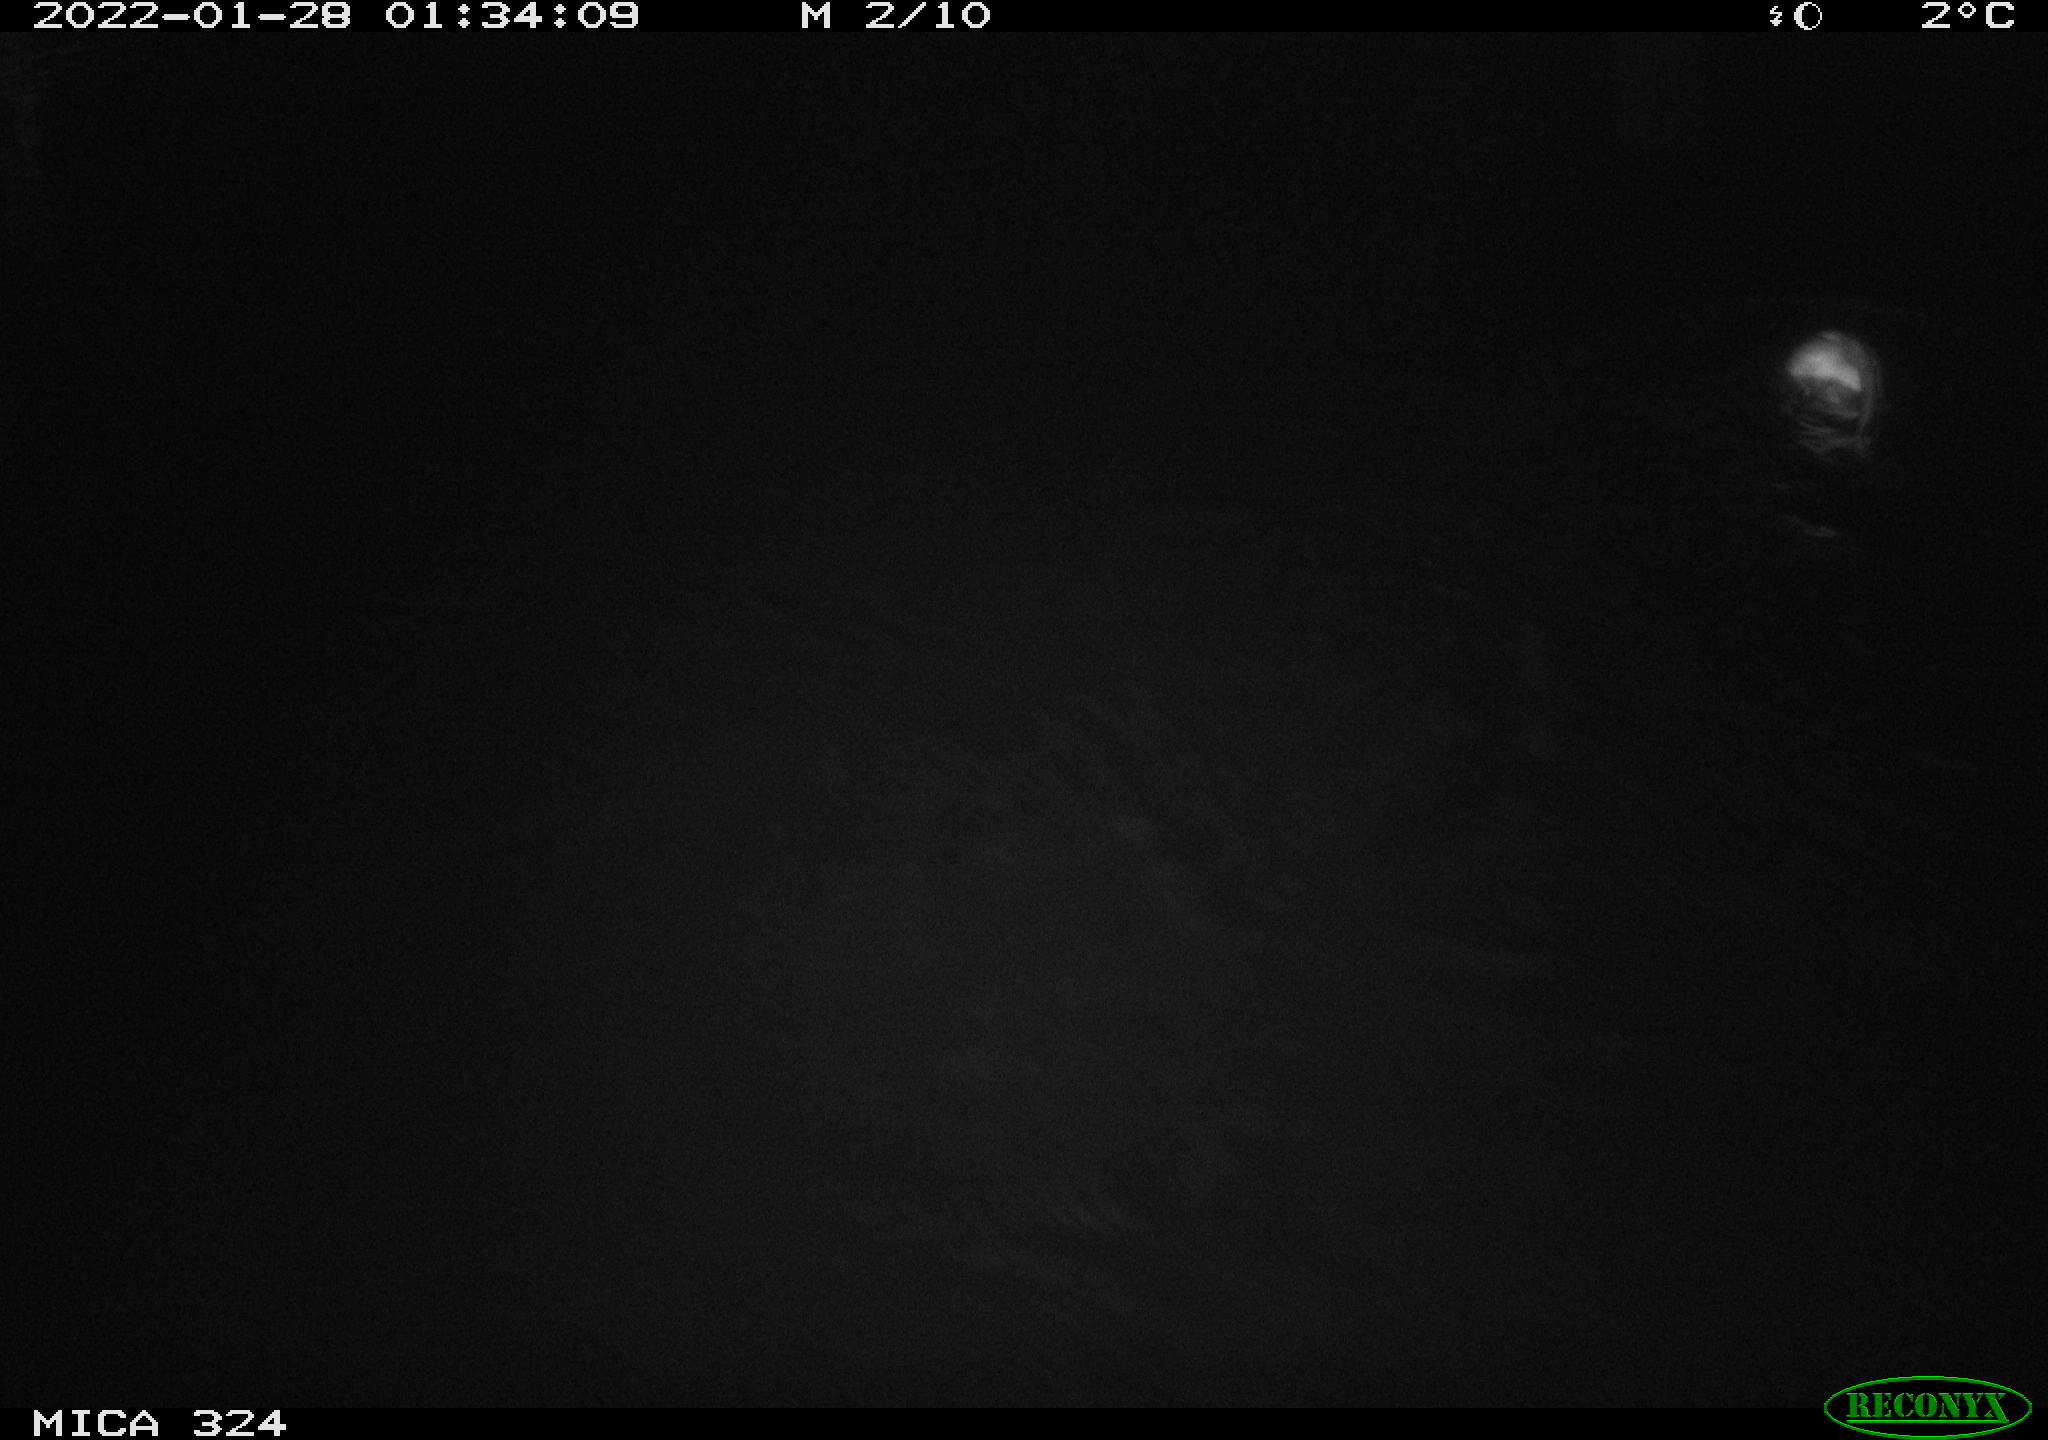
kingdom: Animalia
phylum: Chordata
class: Mammalia
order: Rodentia
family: Cricetidae
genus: Ondatra
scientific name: Ondatra zibethicus
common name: Muskrat
